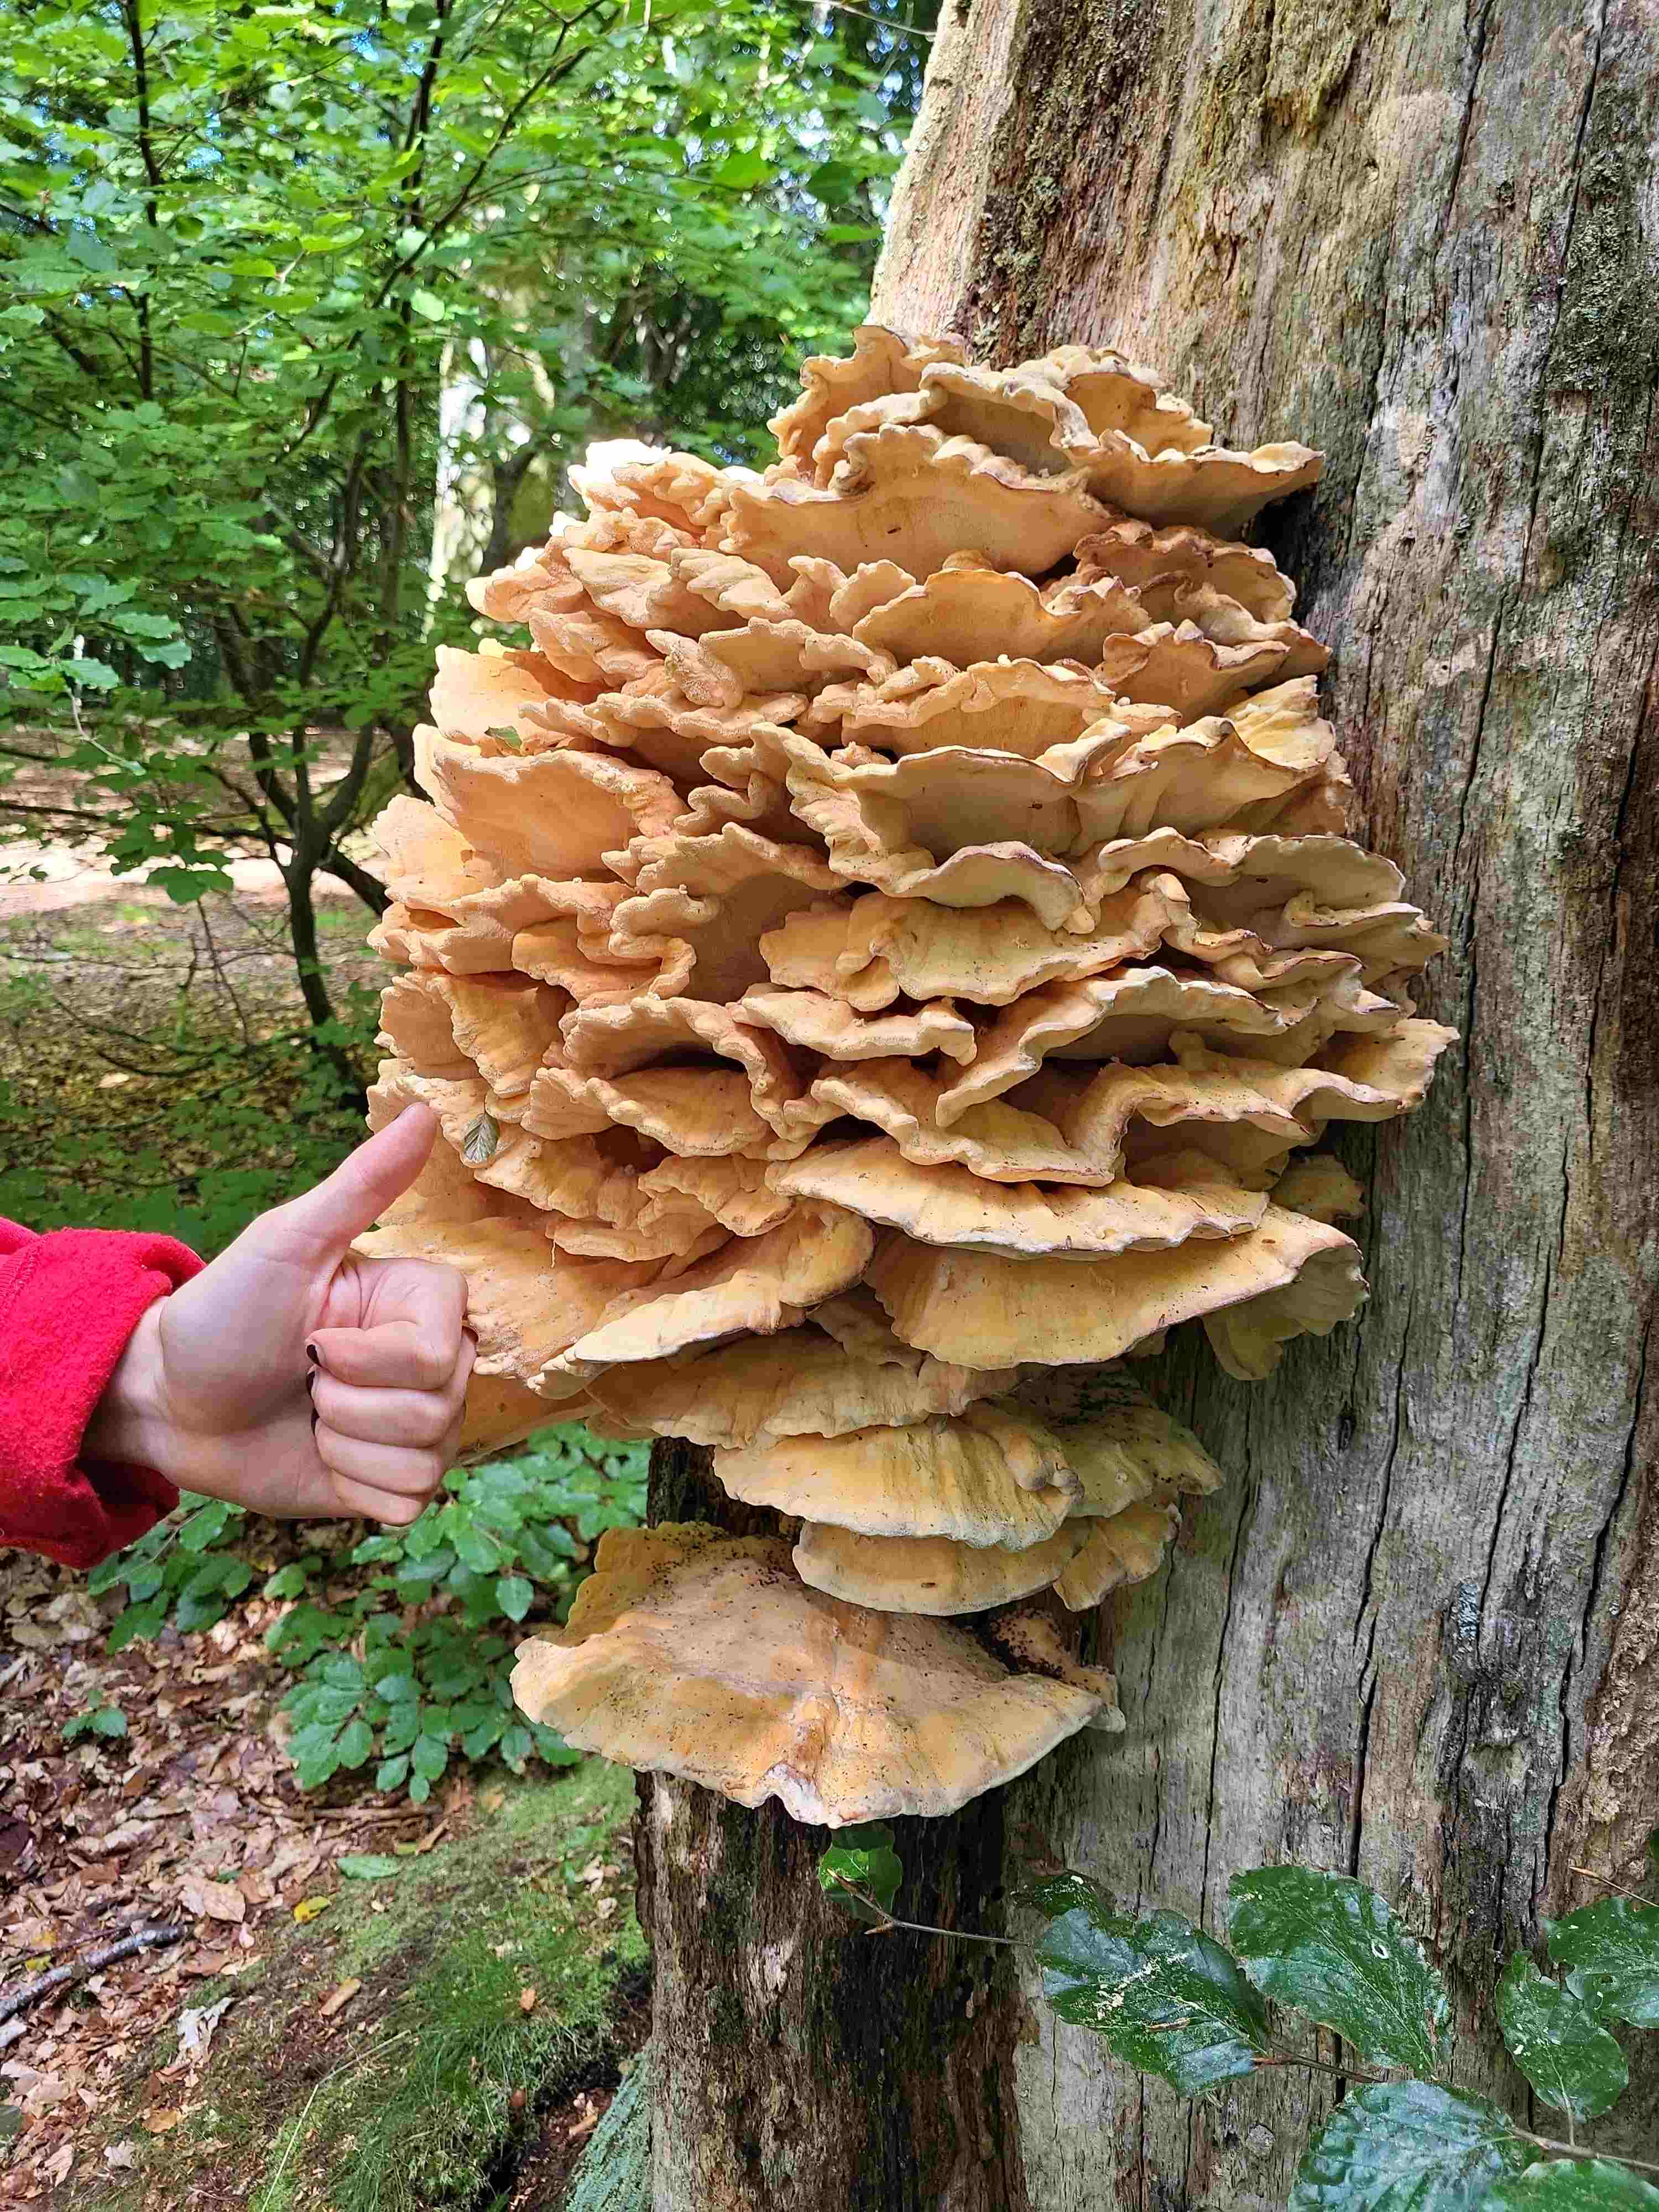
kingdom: Fungi
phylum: Basidiomycota
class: Agaricomycetes
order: Polyporales
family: Laetiporaceae
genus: Laetiporus
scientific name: Laetiporus sulphureus
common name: svovlporesvamp
